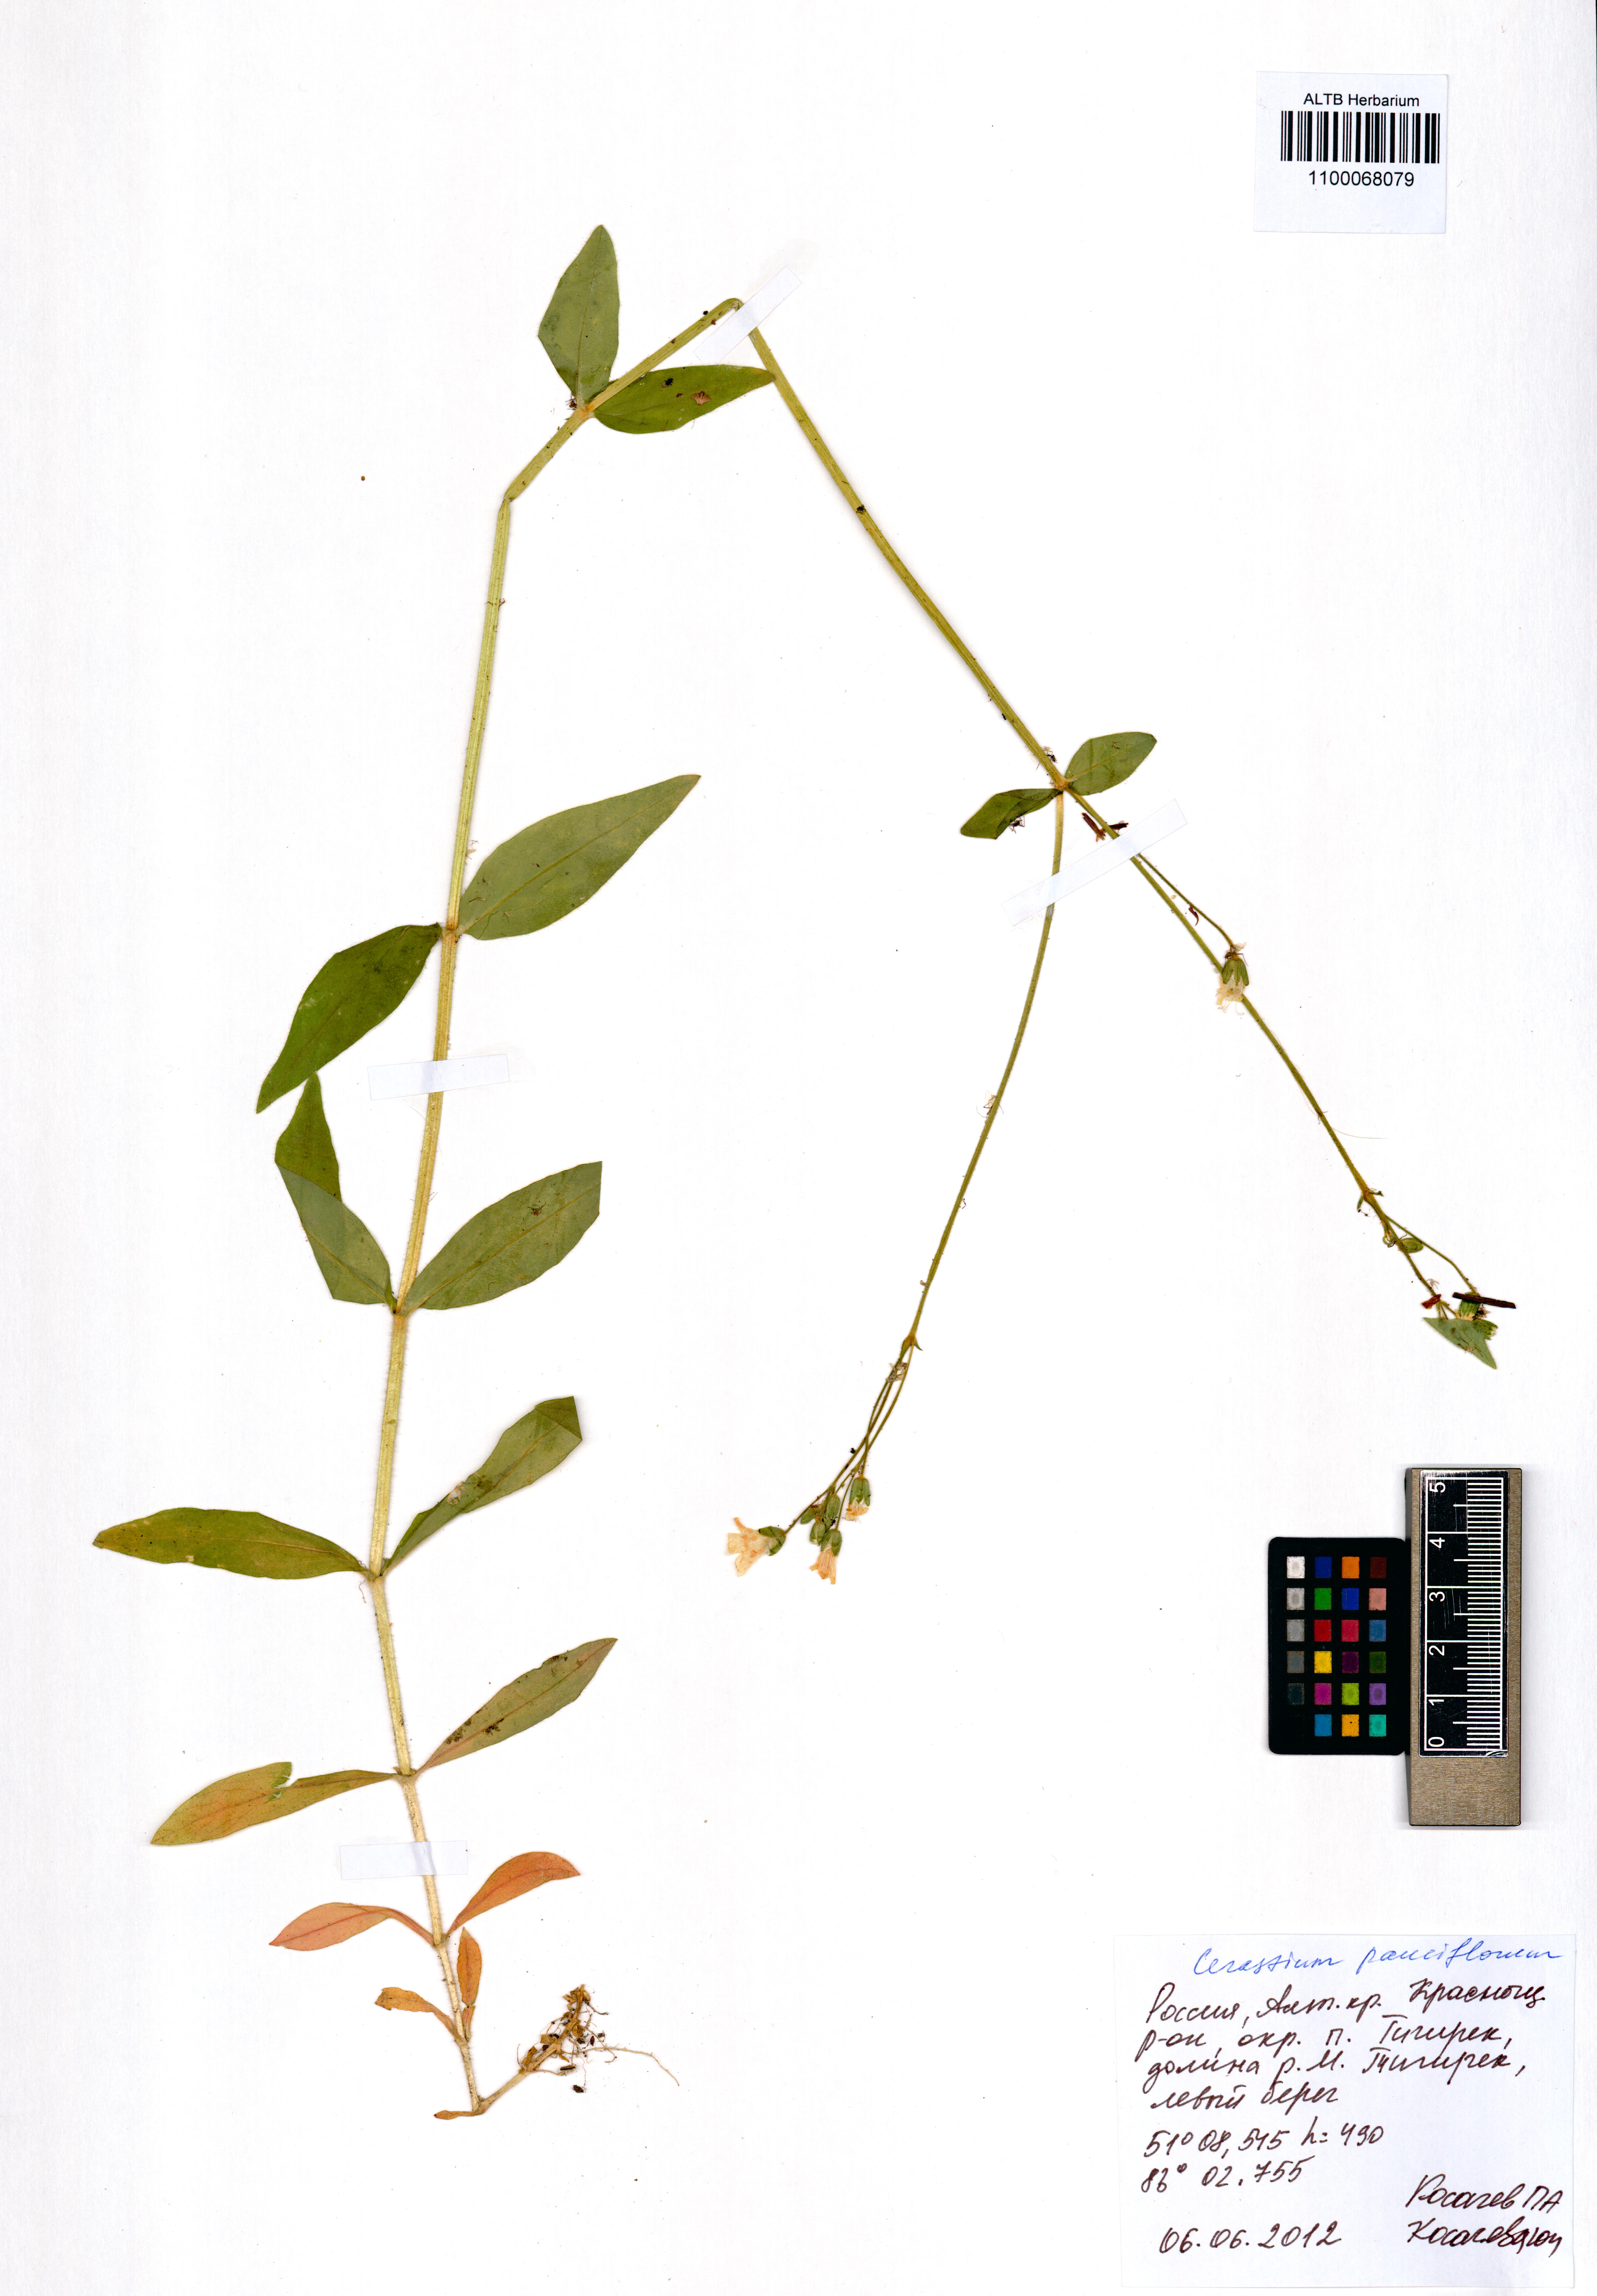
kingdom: Plantae
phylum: Tracheophyta
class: Magnoliopsida
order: Caryophyllales
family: Caryophyllaceae
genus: Cerastium
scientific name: Cerastium pauciflorum
